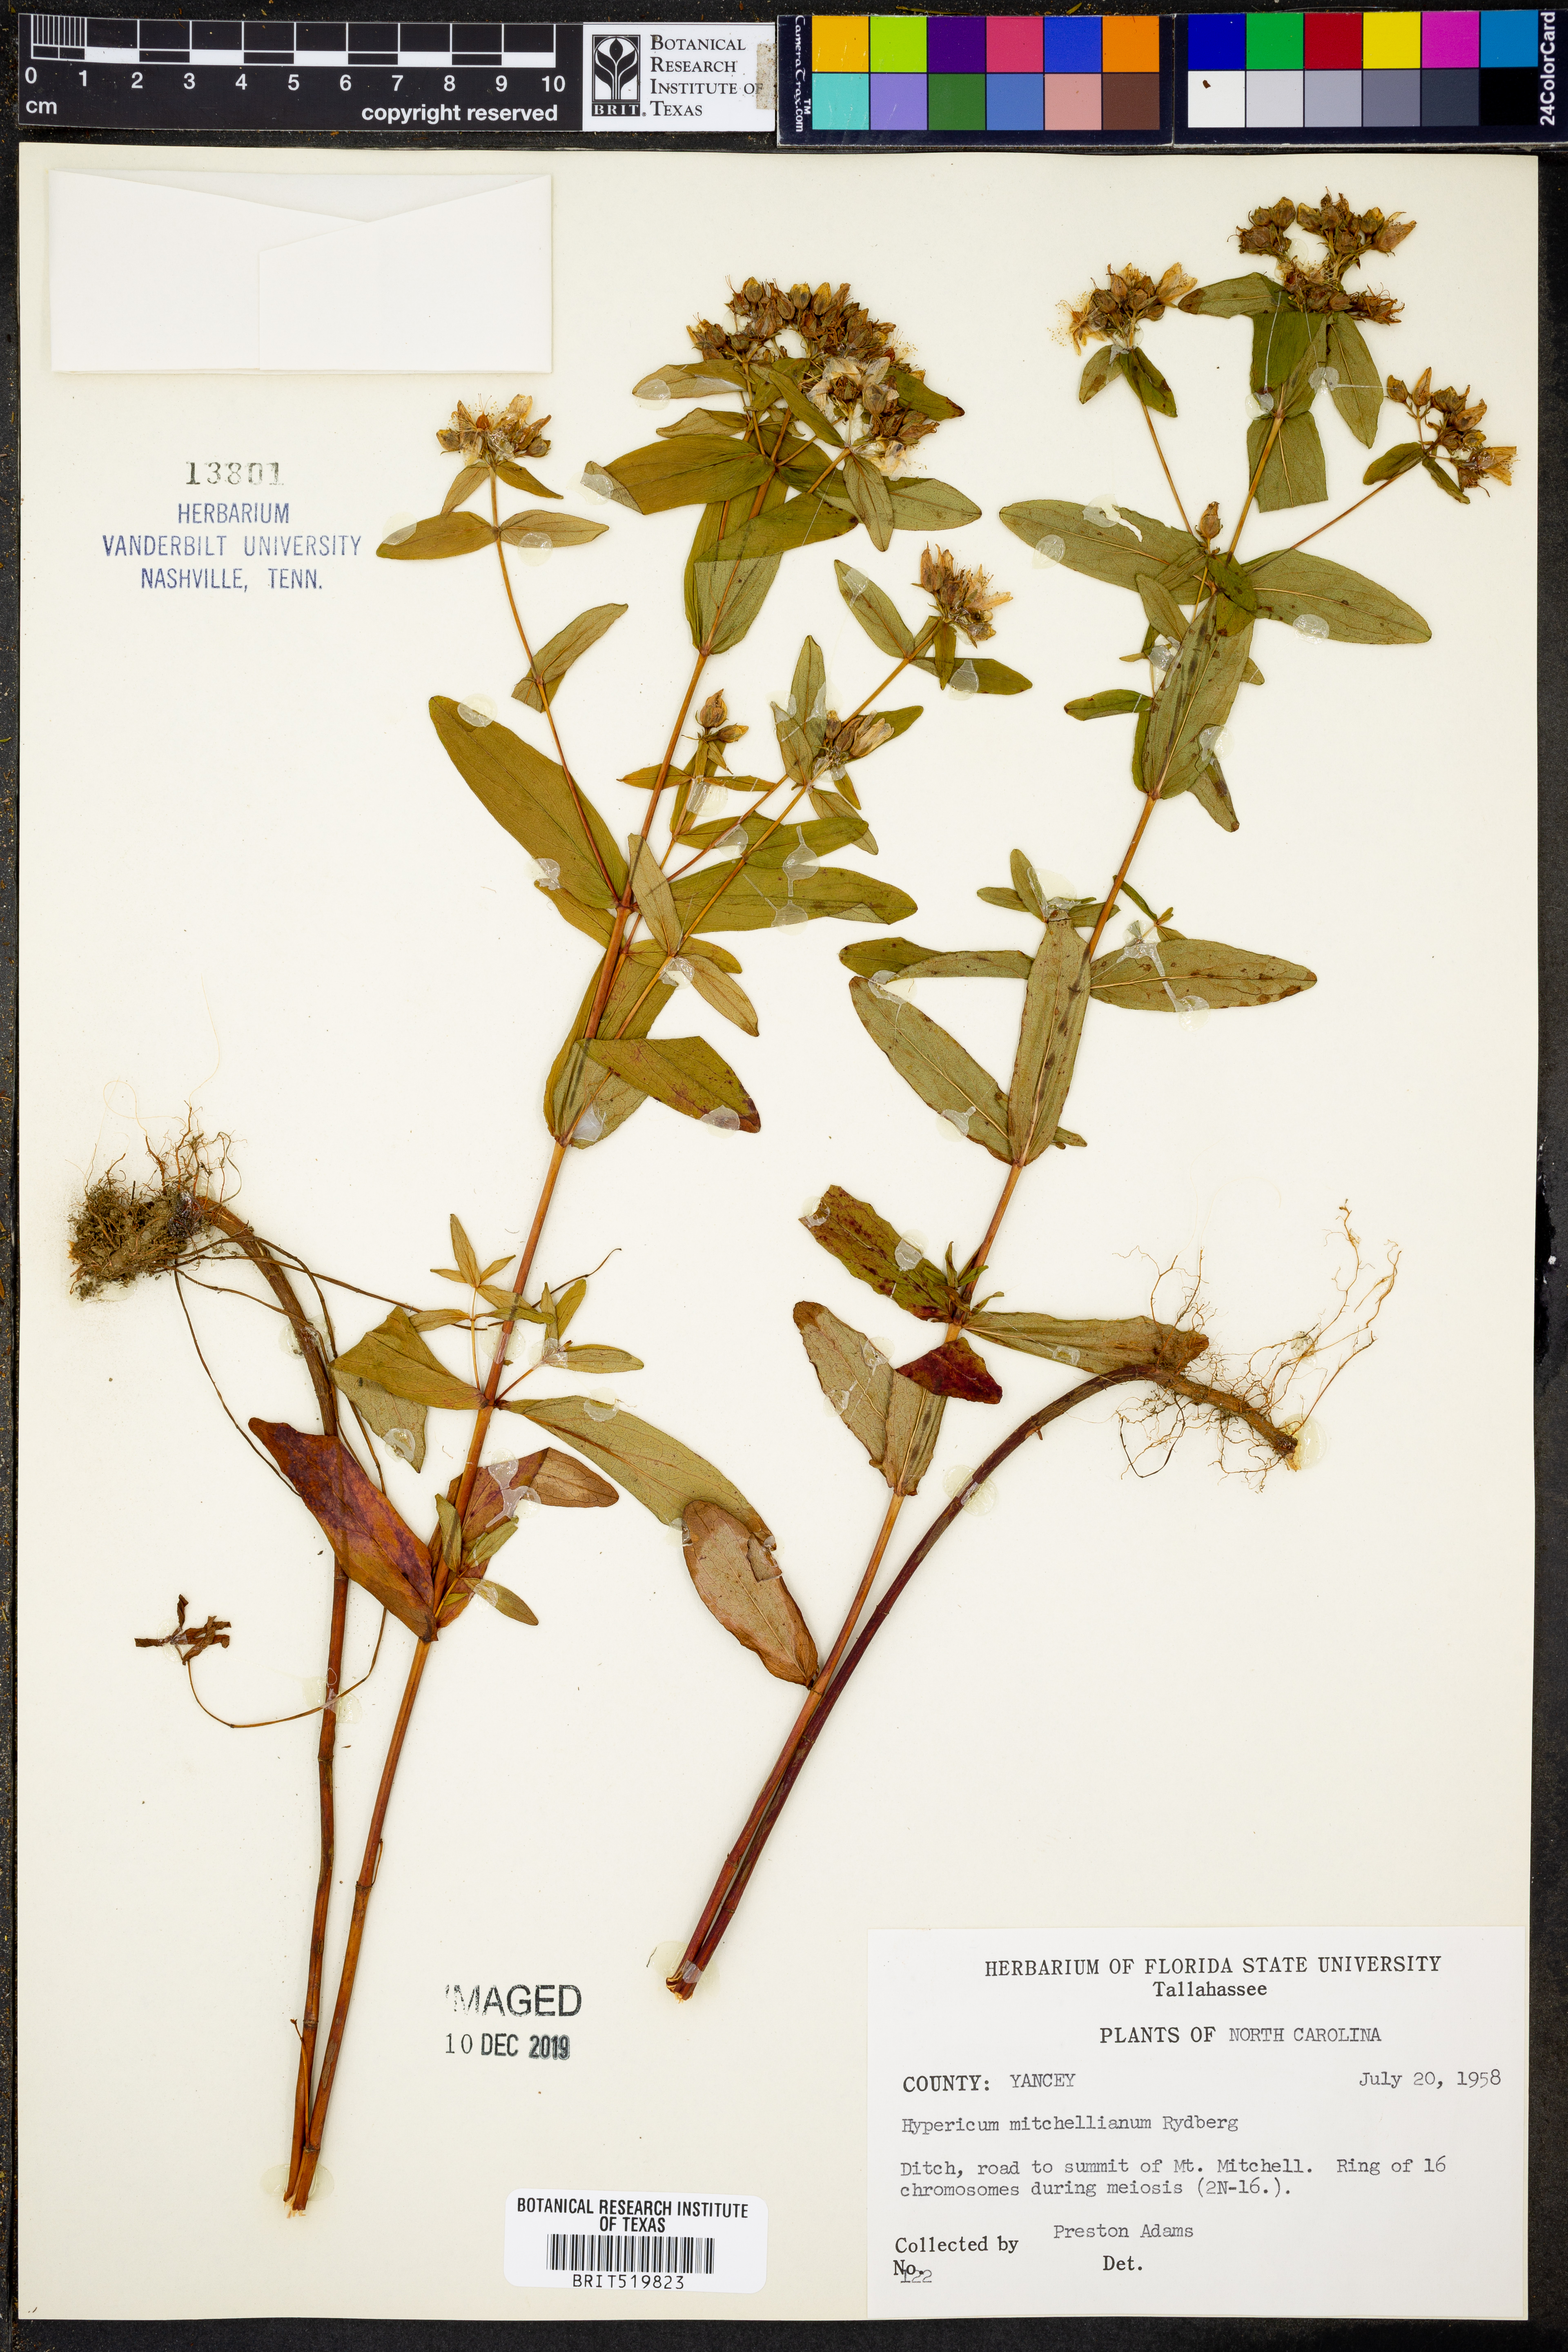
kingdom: Plantae
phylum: Tracheophyta
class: Magnoliopsida
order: Malpighiales
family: Hypericaceae
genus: Hypericum
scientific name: Hypericum mitchellianum
